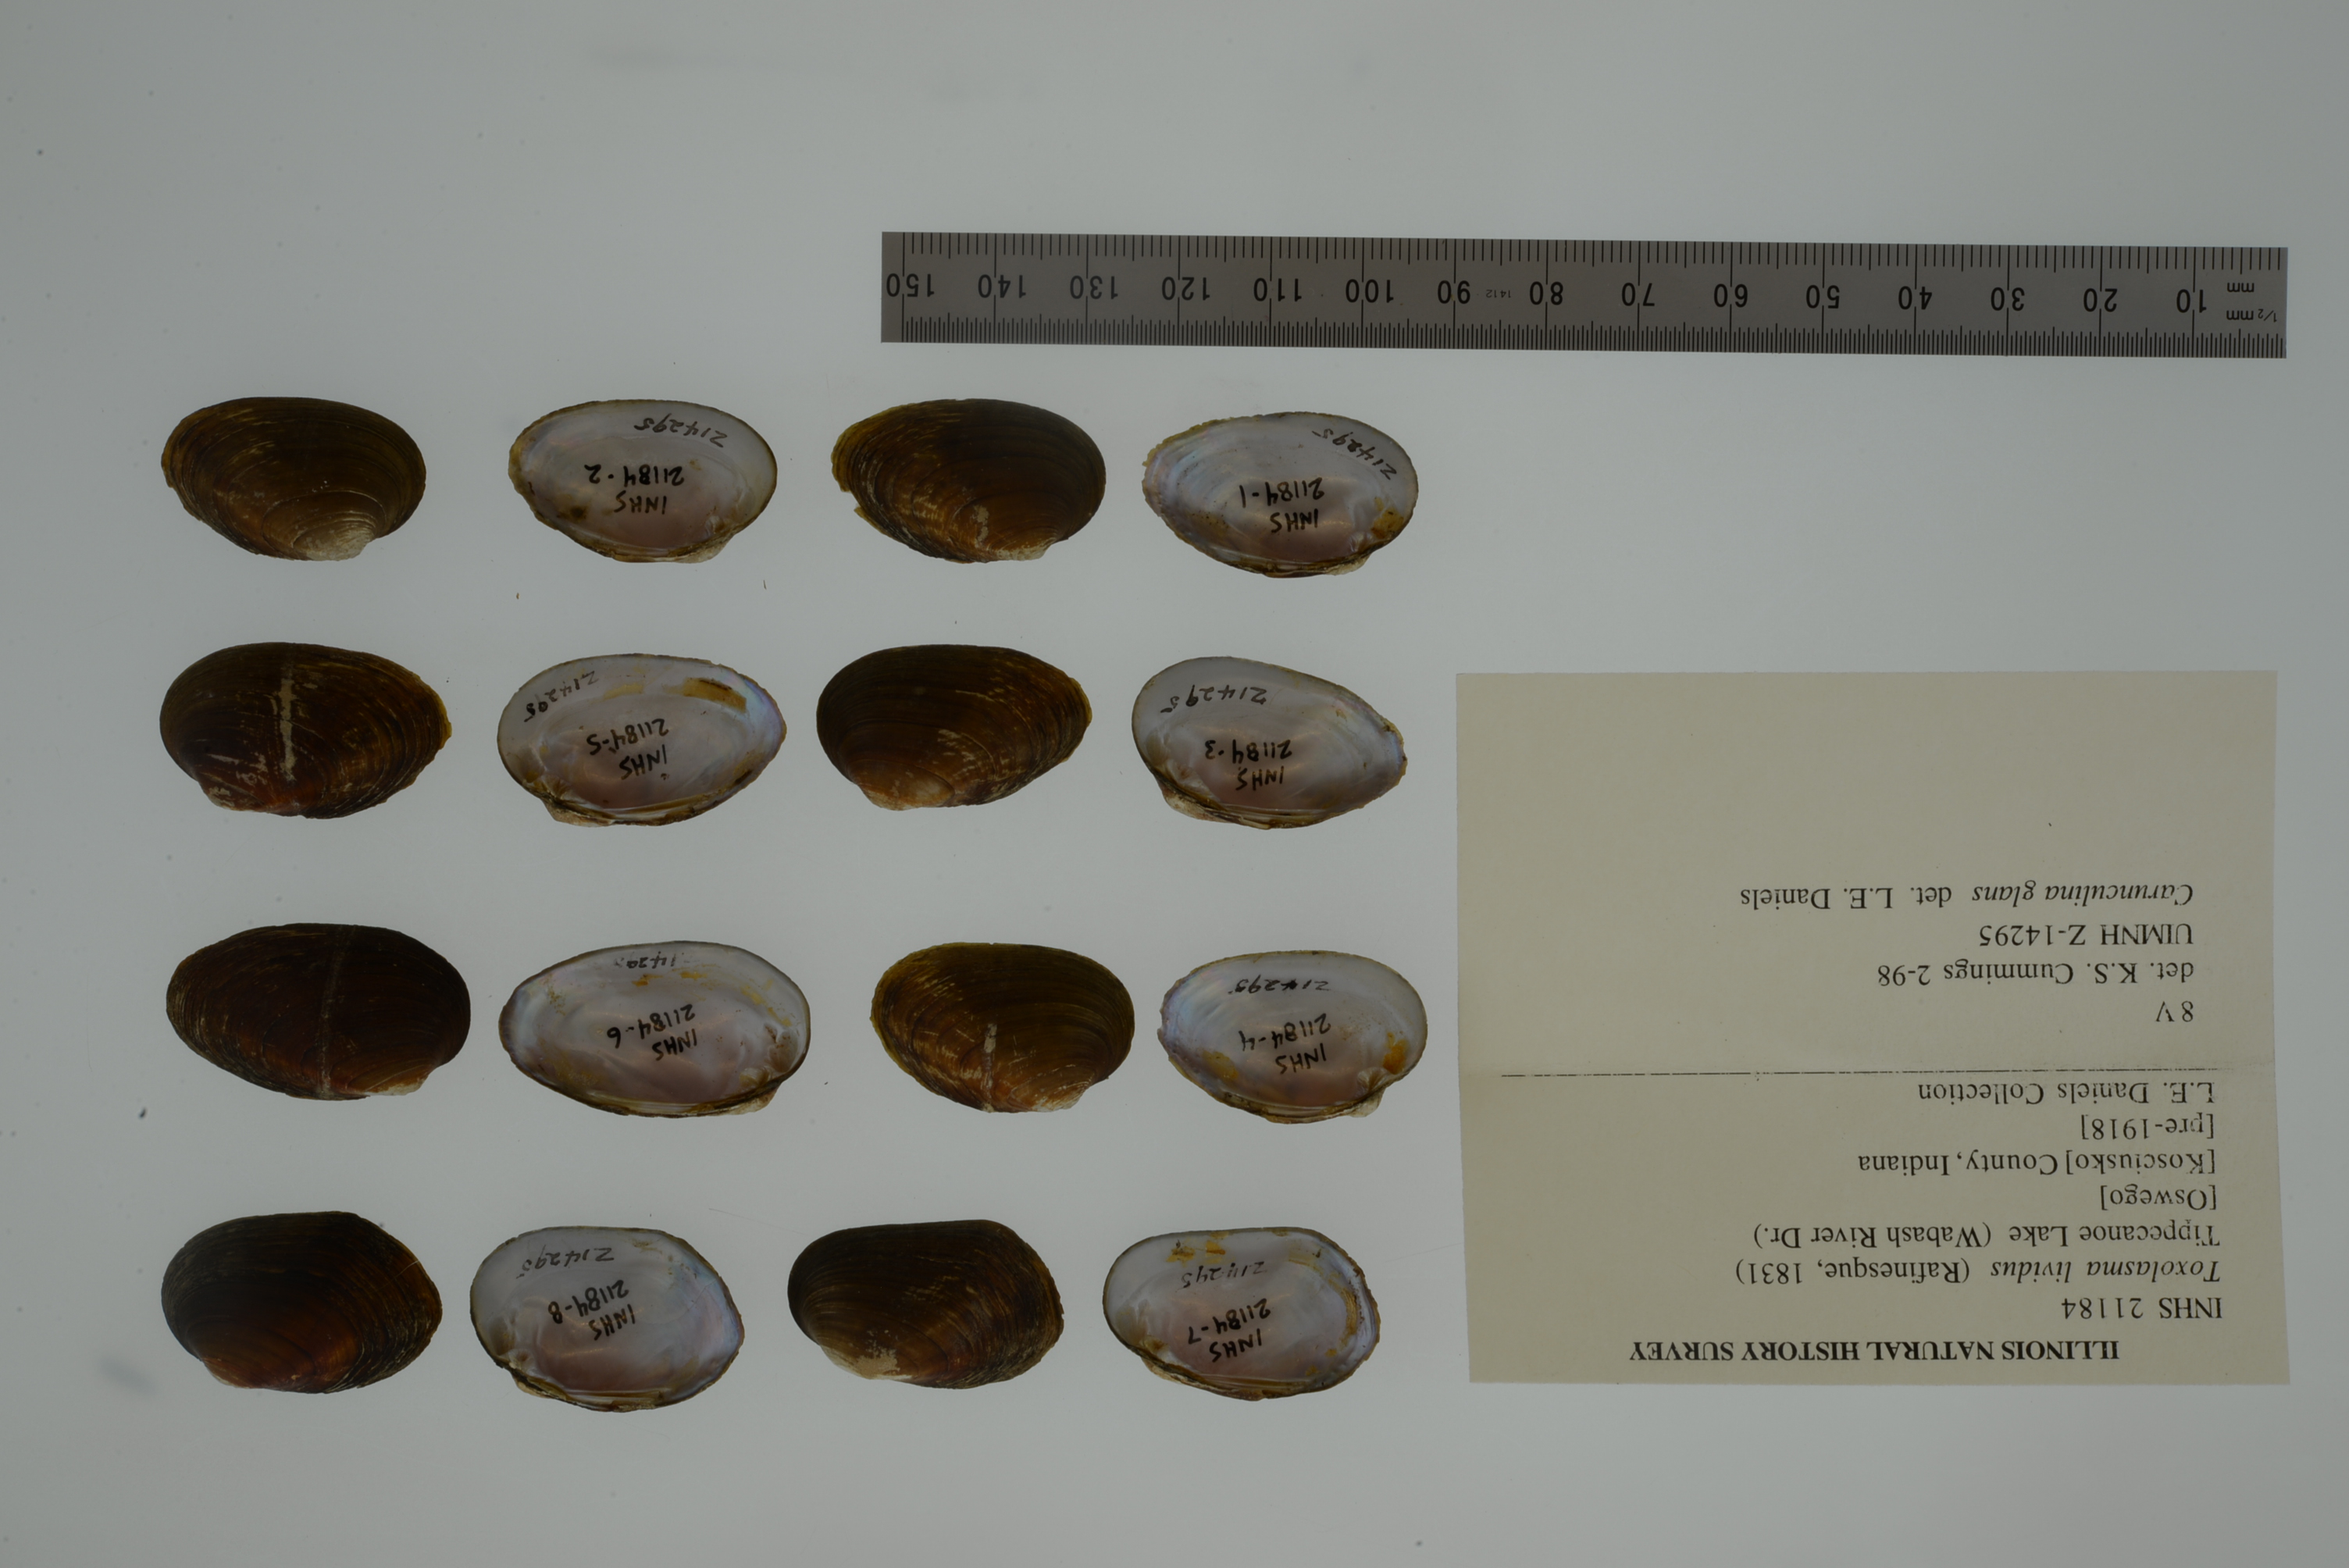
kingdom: Animalia
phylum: Mollusca
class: Bivalvia
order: Unionida
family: Unionidae
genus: Toxolasma
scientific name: Toxolasma lividum
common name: Purple lilliput
